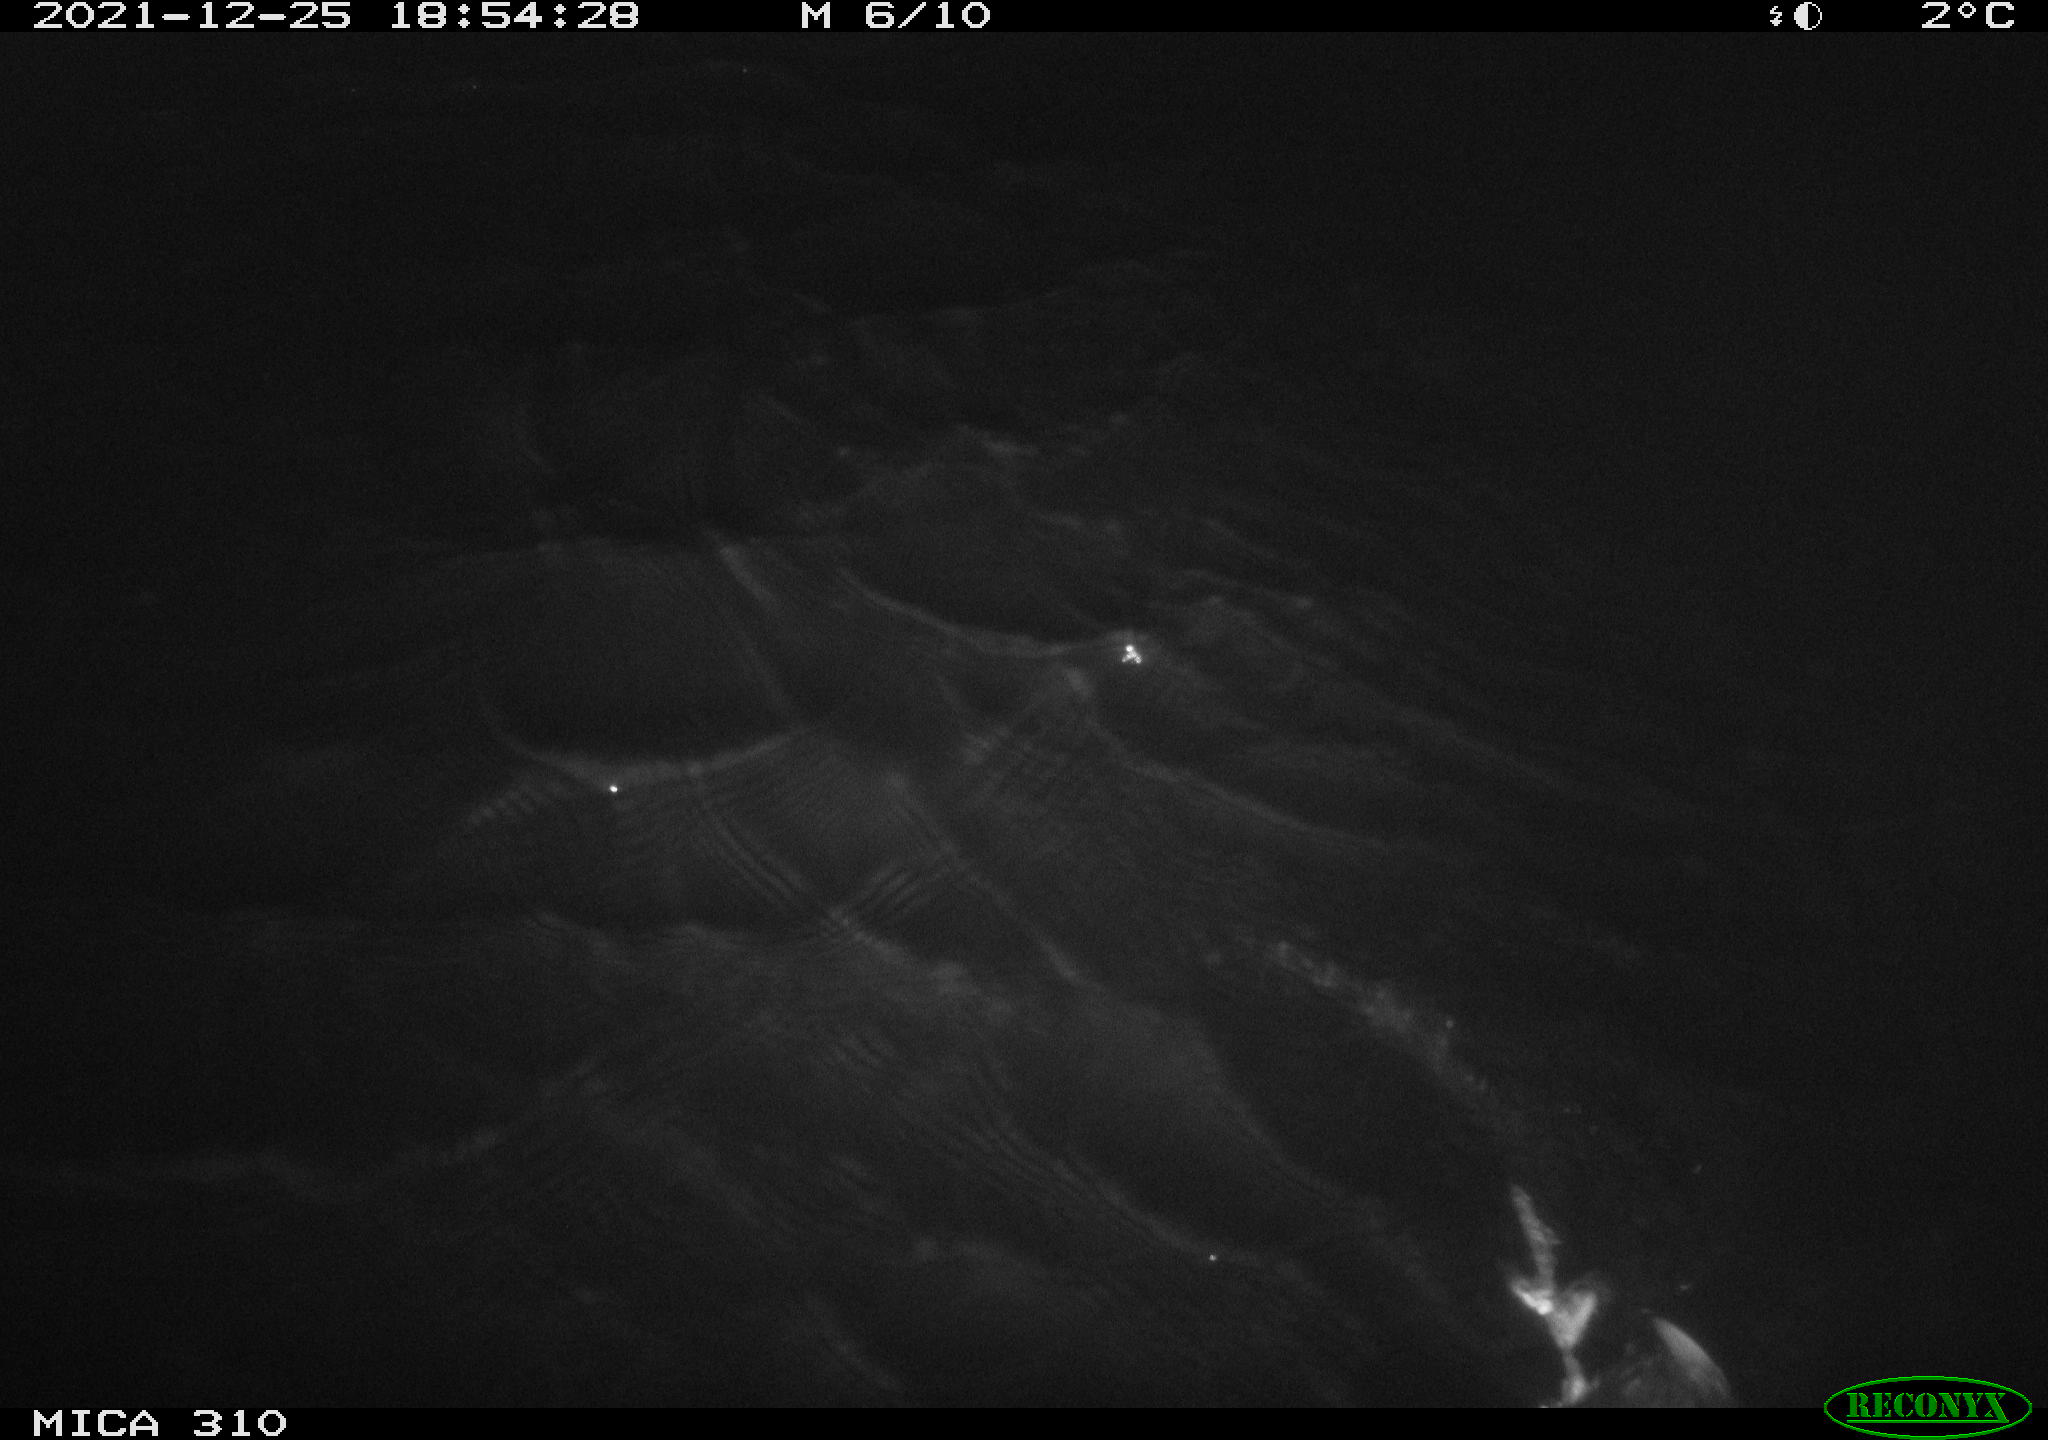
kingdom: Animalia
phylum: Chordata
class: Aves
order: Gruiformes
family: Rallidae
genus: Fulica
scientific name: Fulica atra
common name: Eurasian coot
